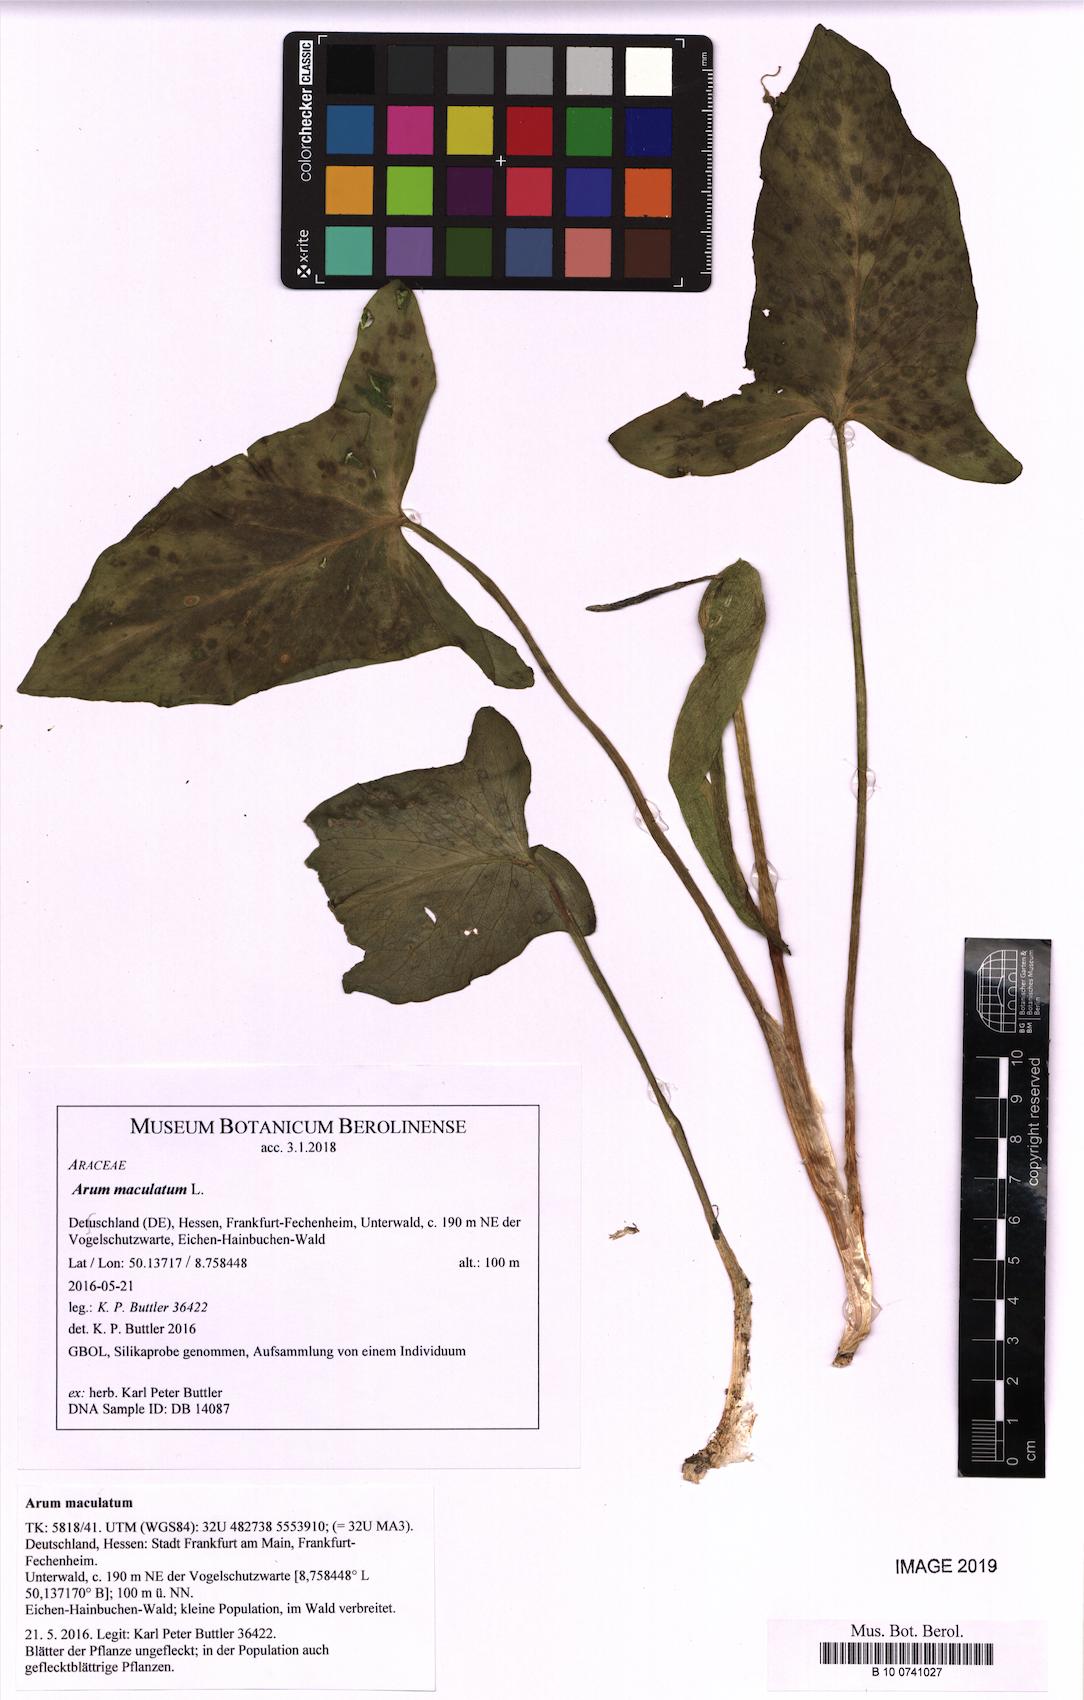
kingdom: Plantae
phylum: Tracheophyta
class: Liliopsida
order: Alismatales
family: Araceae
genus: Arum
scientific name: Arum maculatum
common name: Lords-and-ladies
